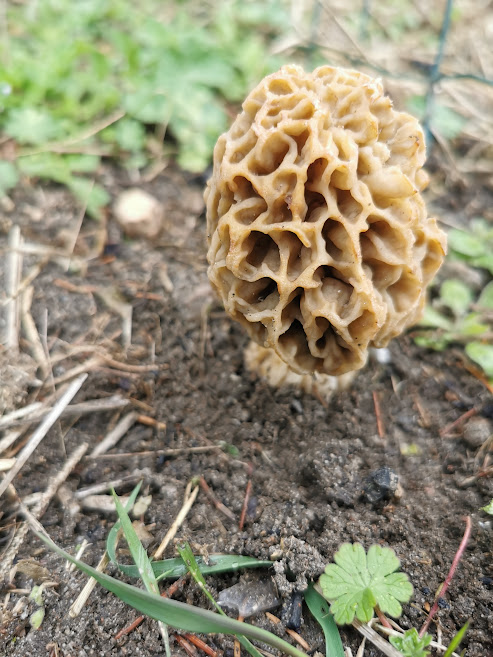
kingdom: Fungi
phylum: Ascomycota
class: Pezizomycetes
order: Pezizales
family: Morchellaceae
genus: Morchella
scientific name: Morchella esculenta
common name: almindelig morkel
